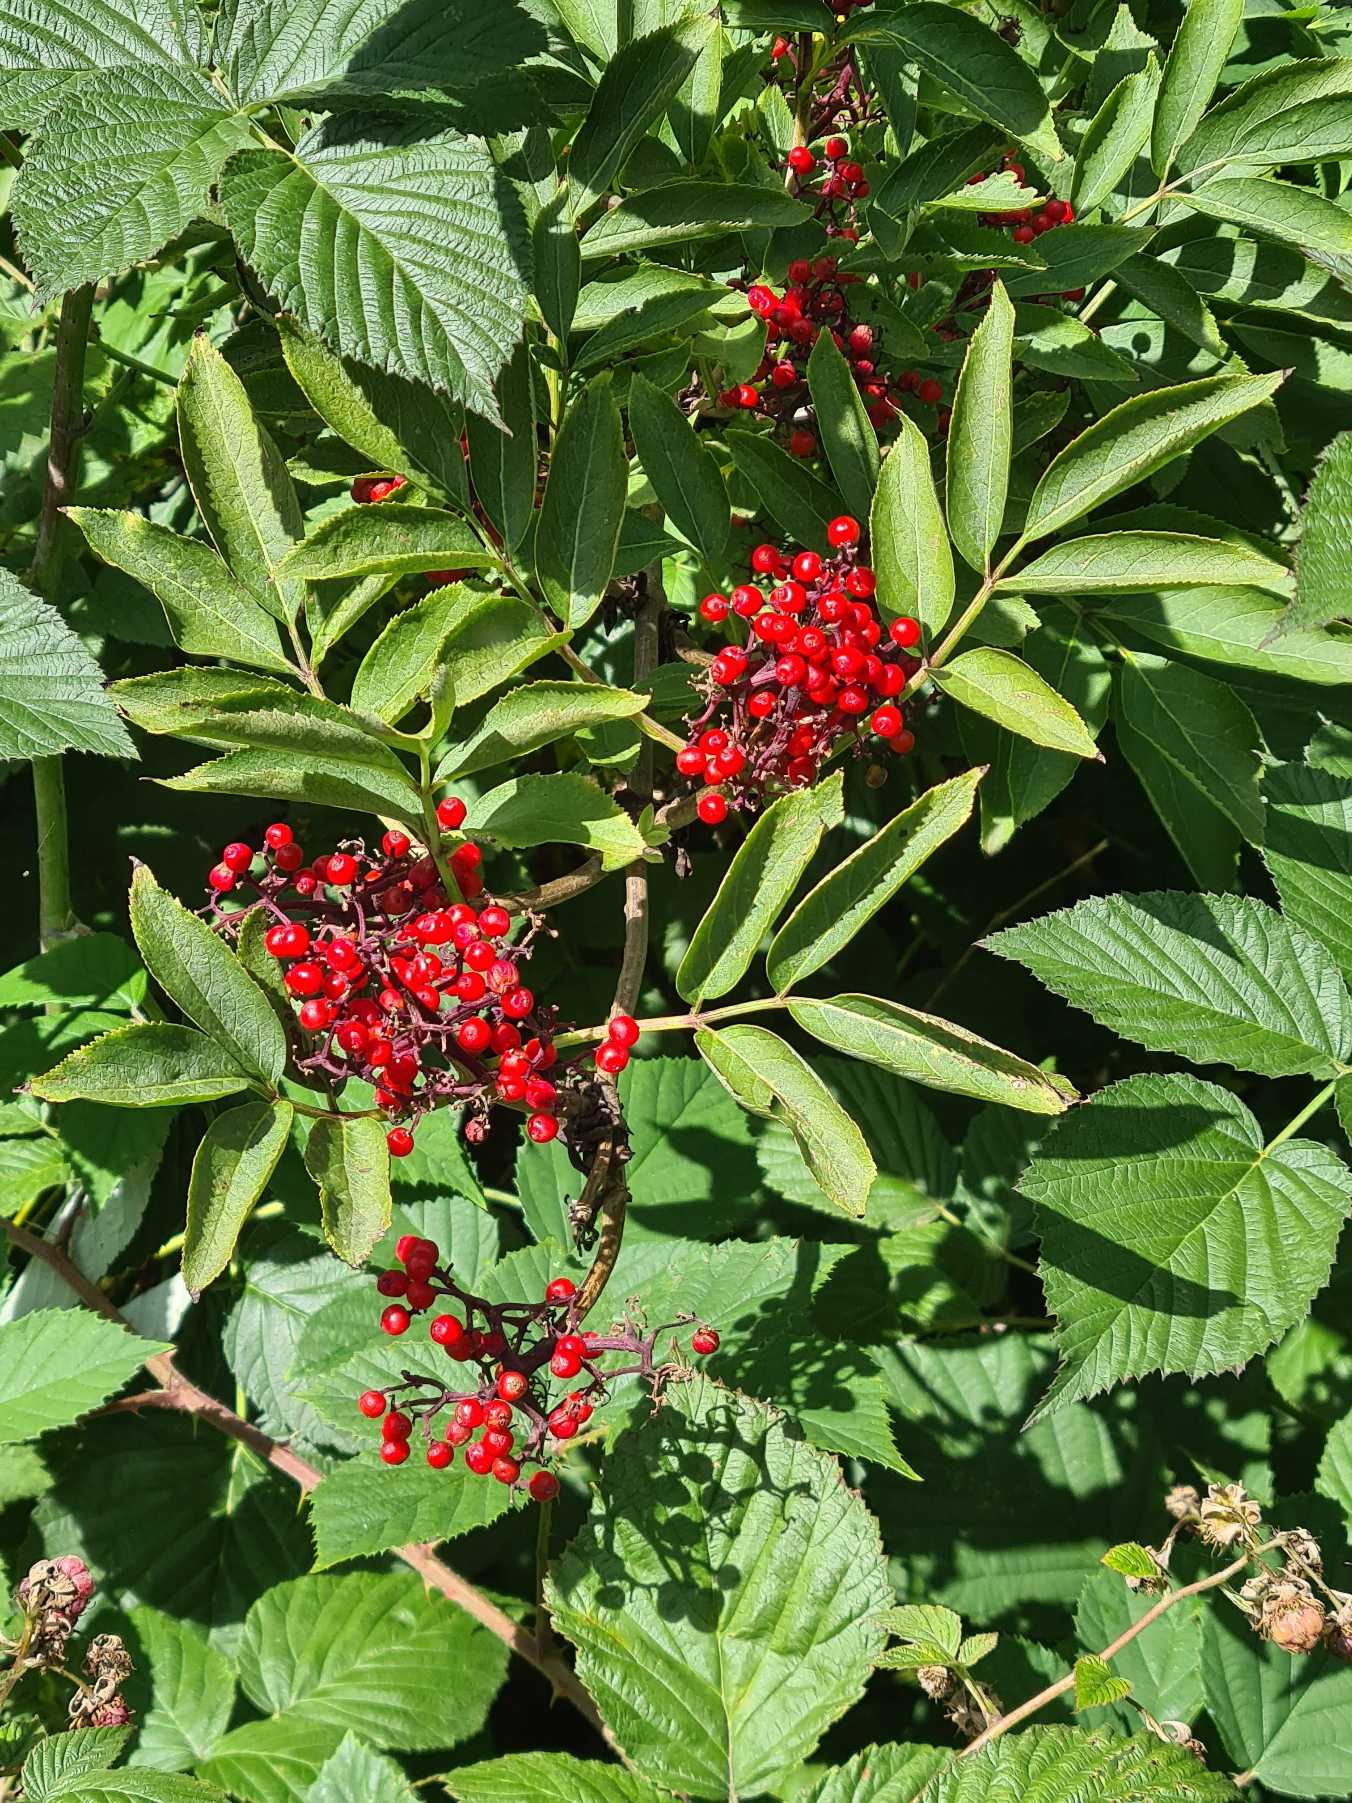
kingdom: Plantae
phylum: Tracheophyta
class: Magnoliopsida
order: Dipsacales
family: Viburnaceae
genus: Sambucus
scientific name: Sambucus racemosa
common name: Drue-hyld
